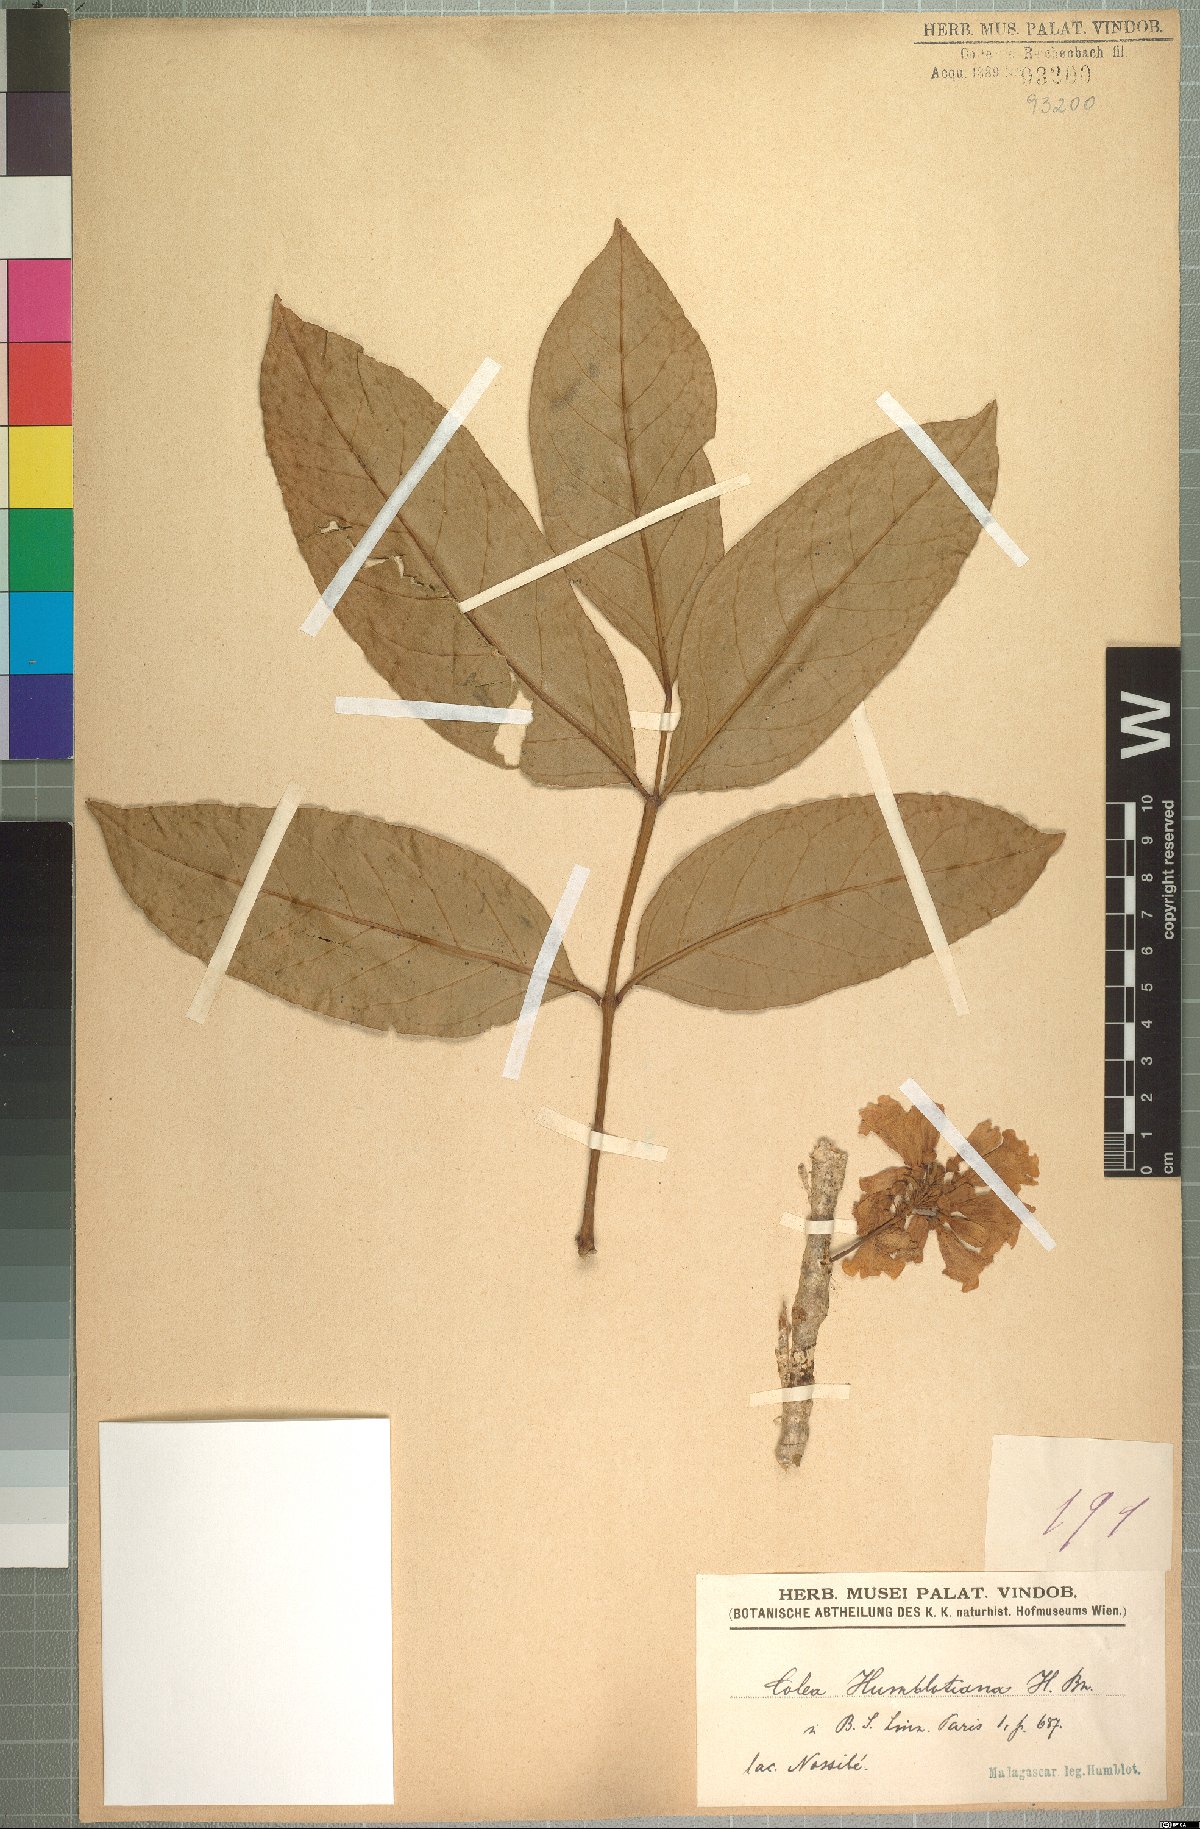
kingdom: Plantae
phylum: Tracheophyta
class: Magnoliopsida
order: Lamiales
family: Bignoniaceae
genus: Rhodocolea
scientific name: Rhodocolea racemosa
